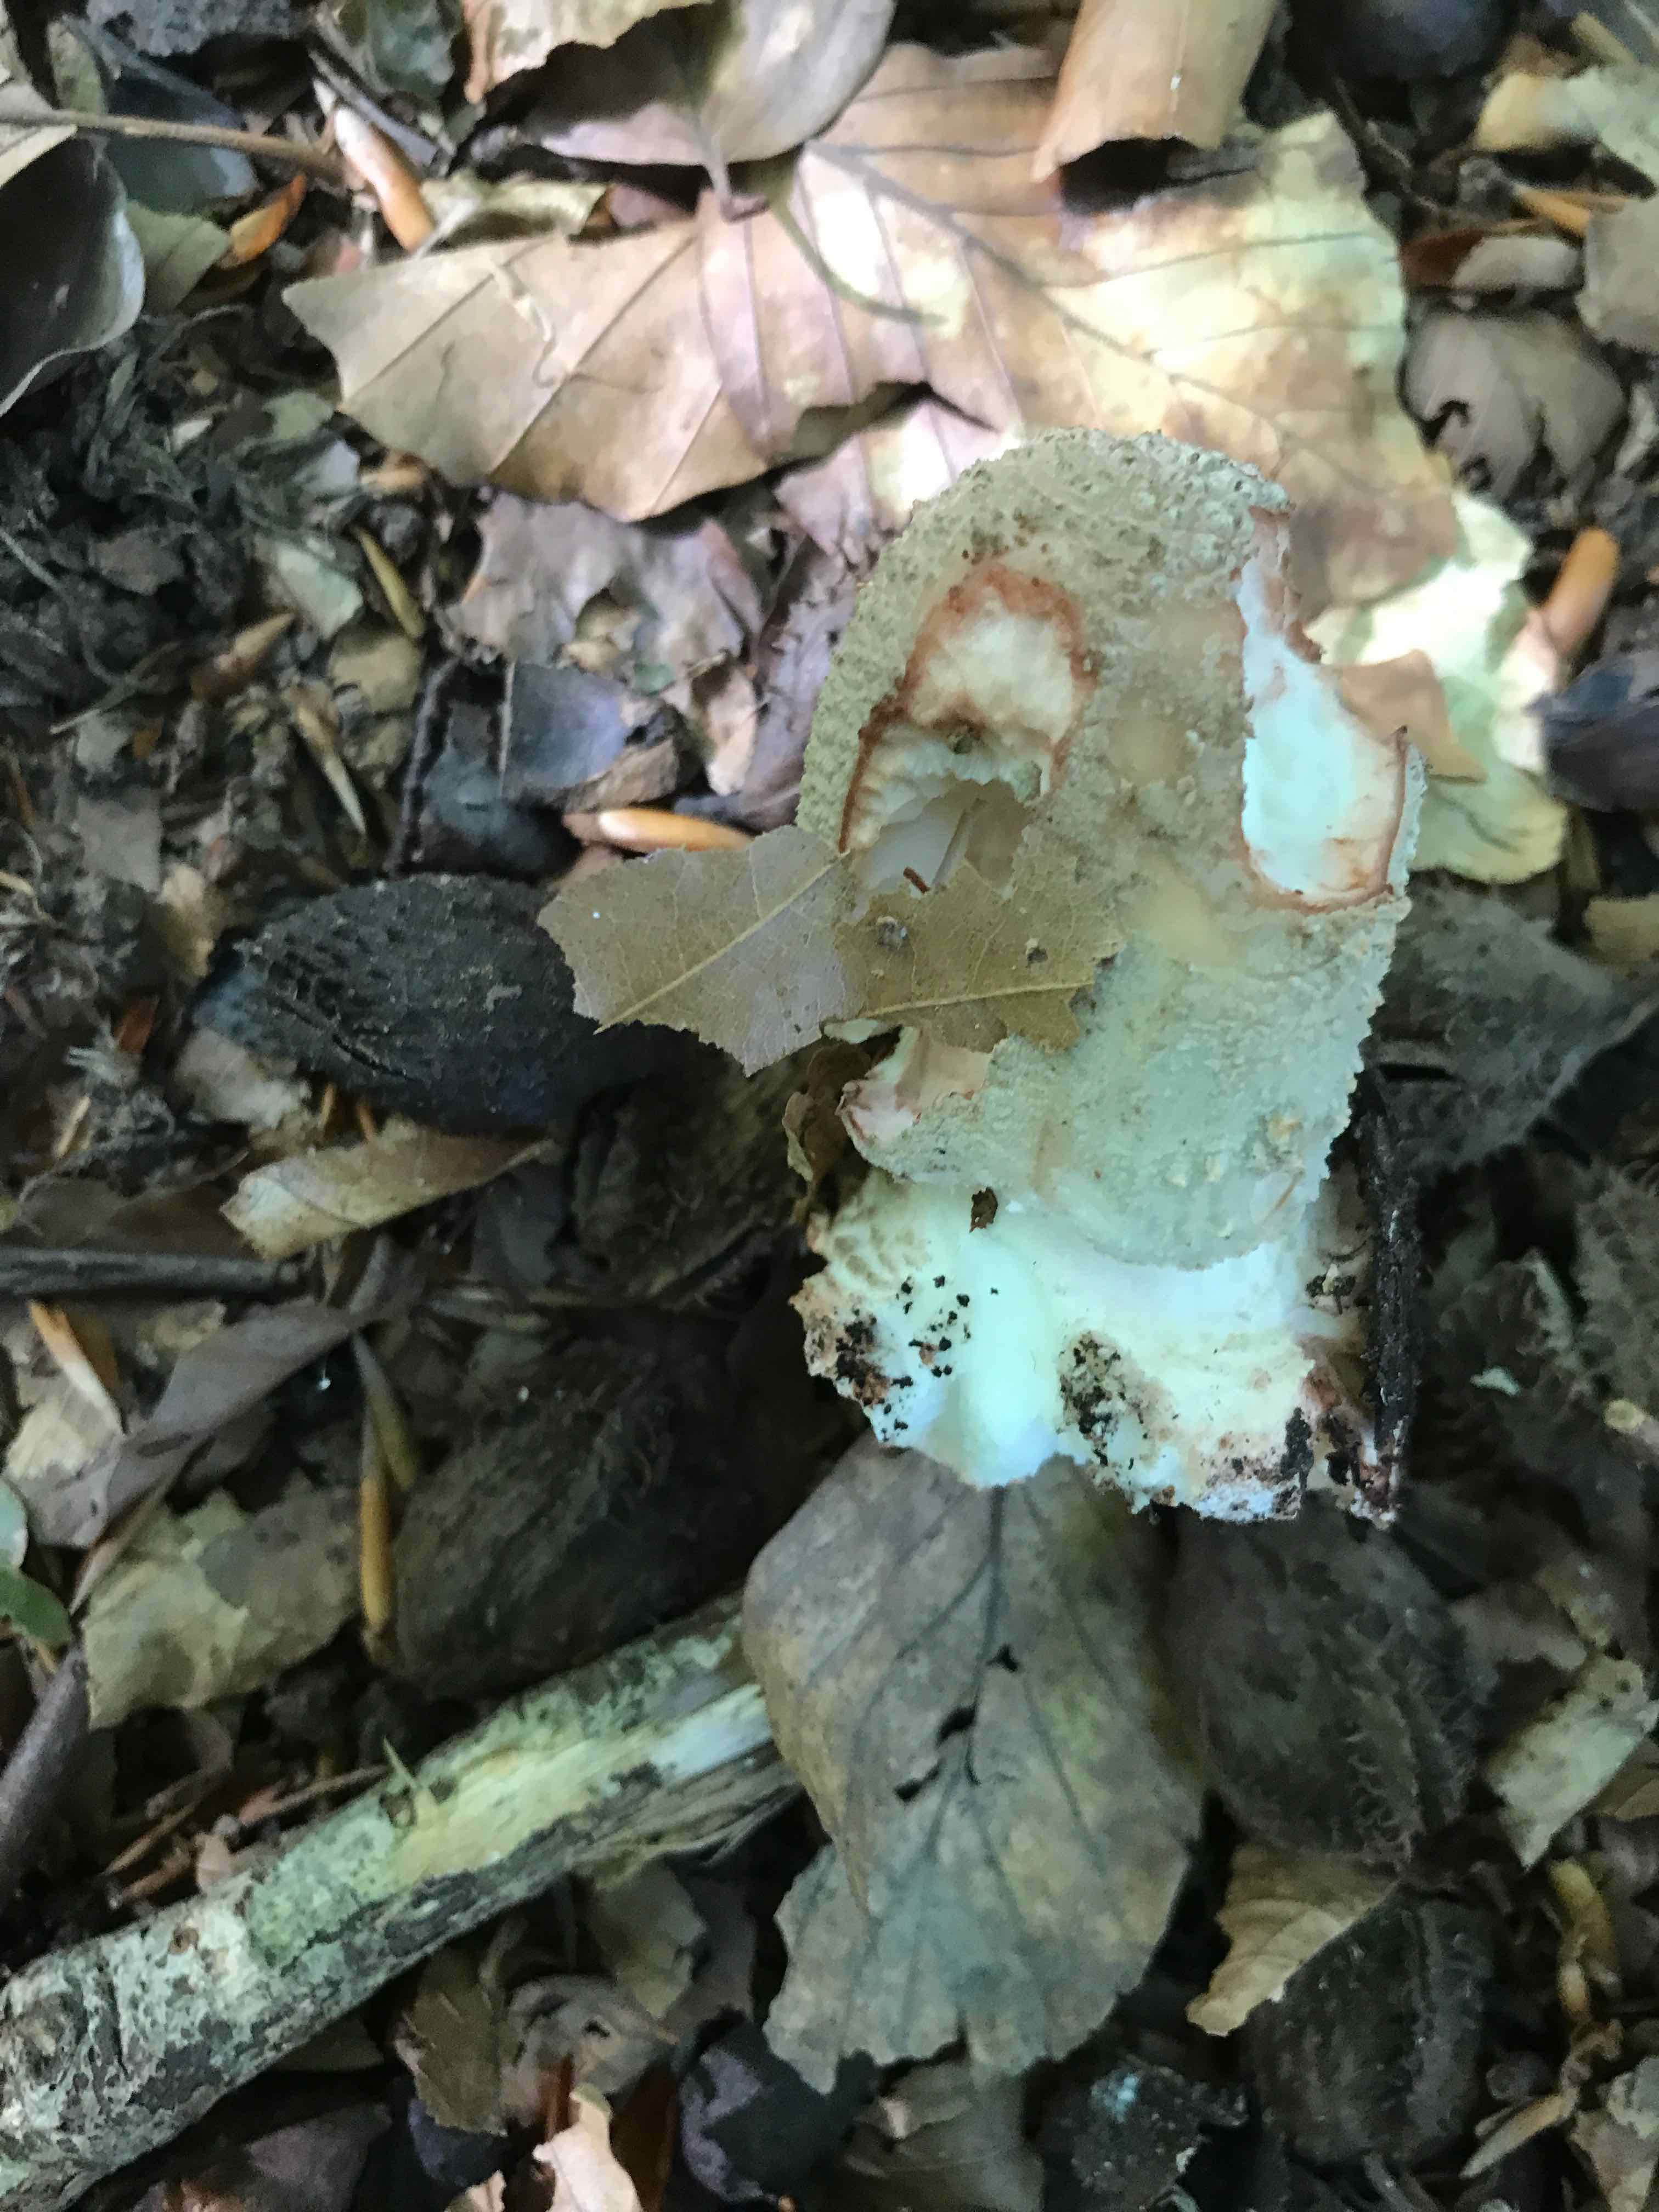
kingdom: Fungi
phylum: Basidiomycota
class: Agaricomycetes
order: Agaricales
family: Amanitaceae
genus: Amanita
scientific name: Amanita rubescens
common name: rødmende fluesvamp
